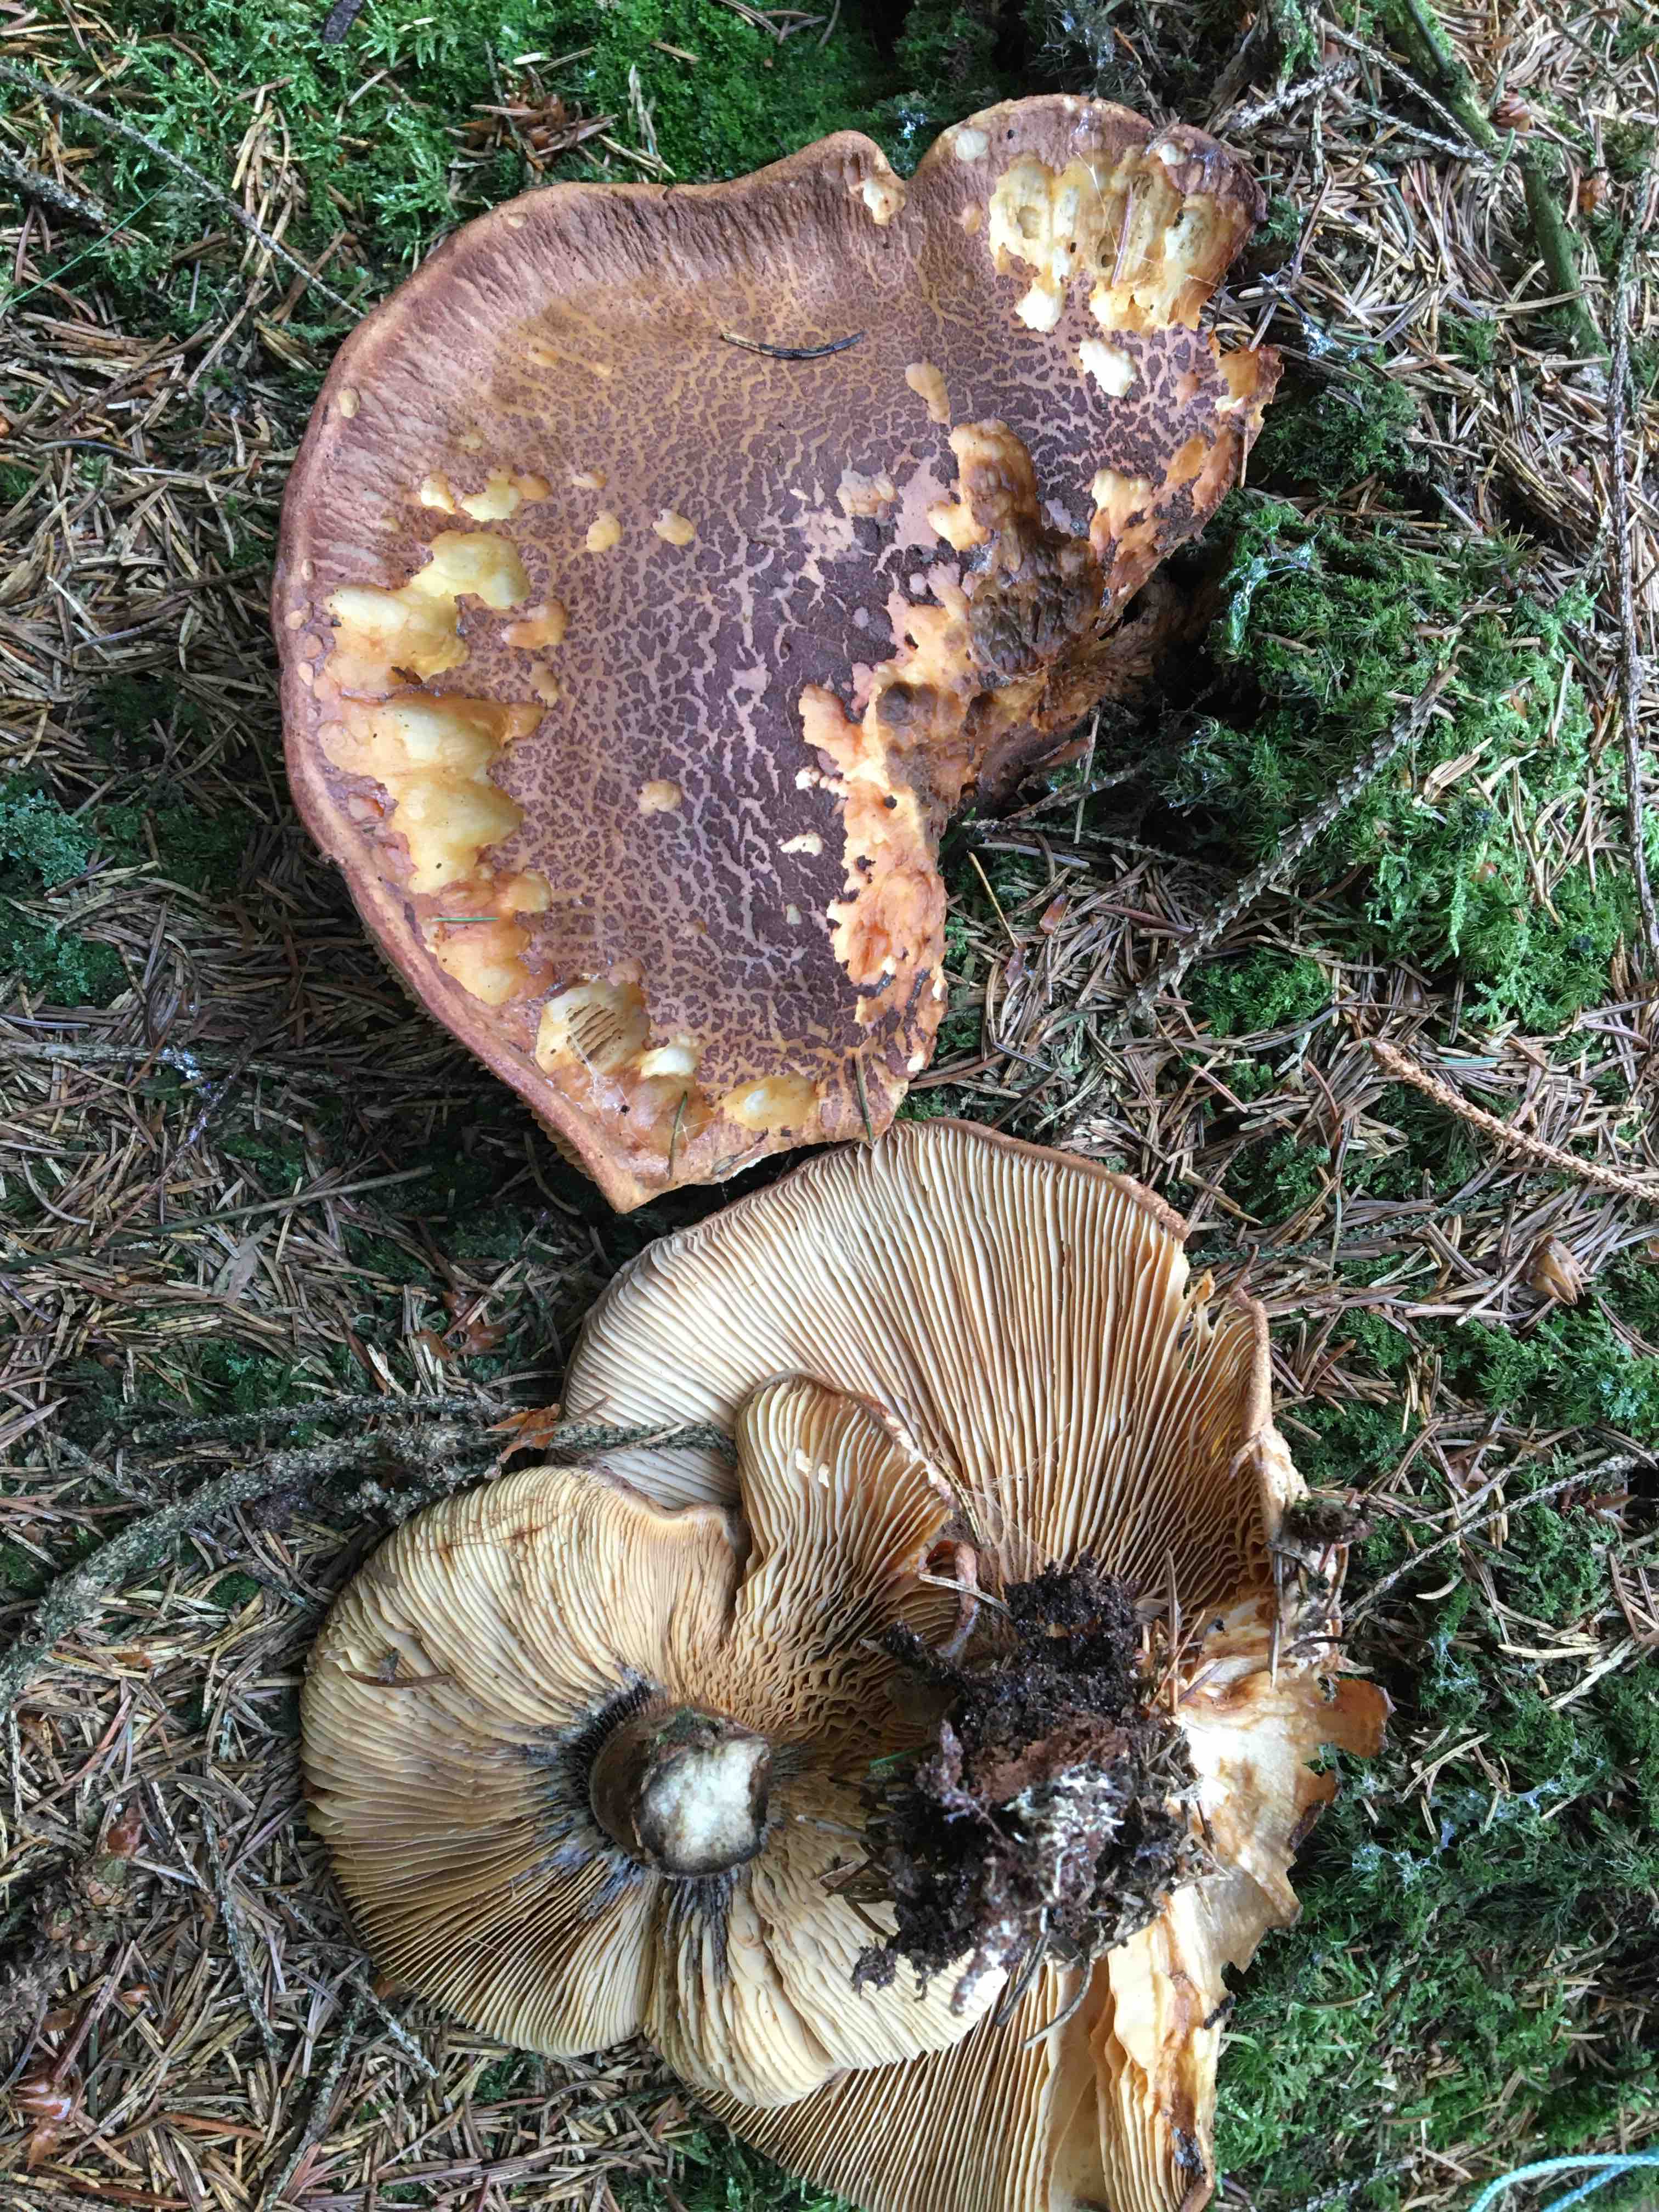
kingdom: Fungi
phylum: Basidiomycota
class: Agaricomycetes
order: Russulales
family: Russulaceae
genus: Lactarius
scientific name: Lactarius
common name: mælkehat
